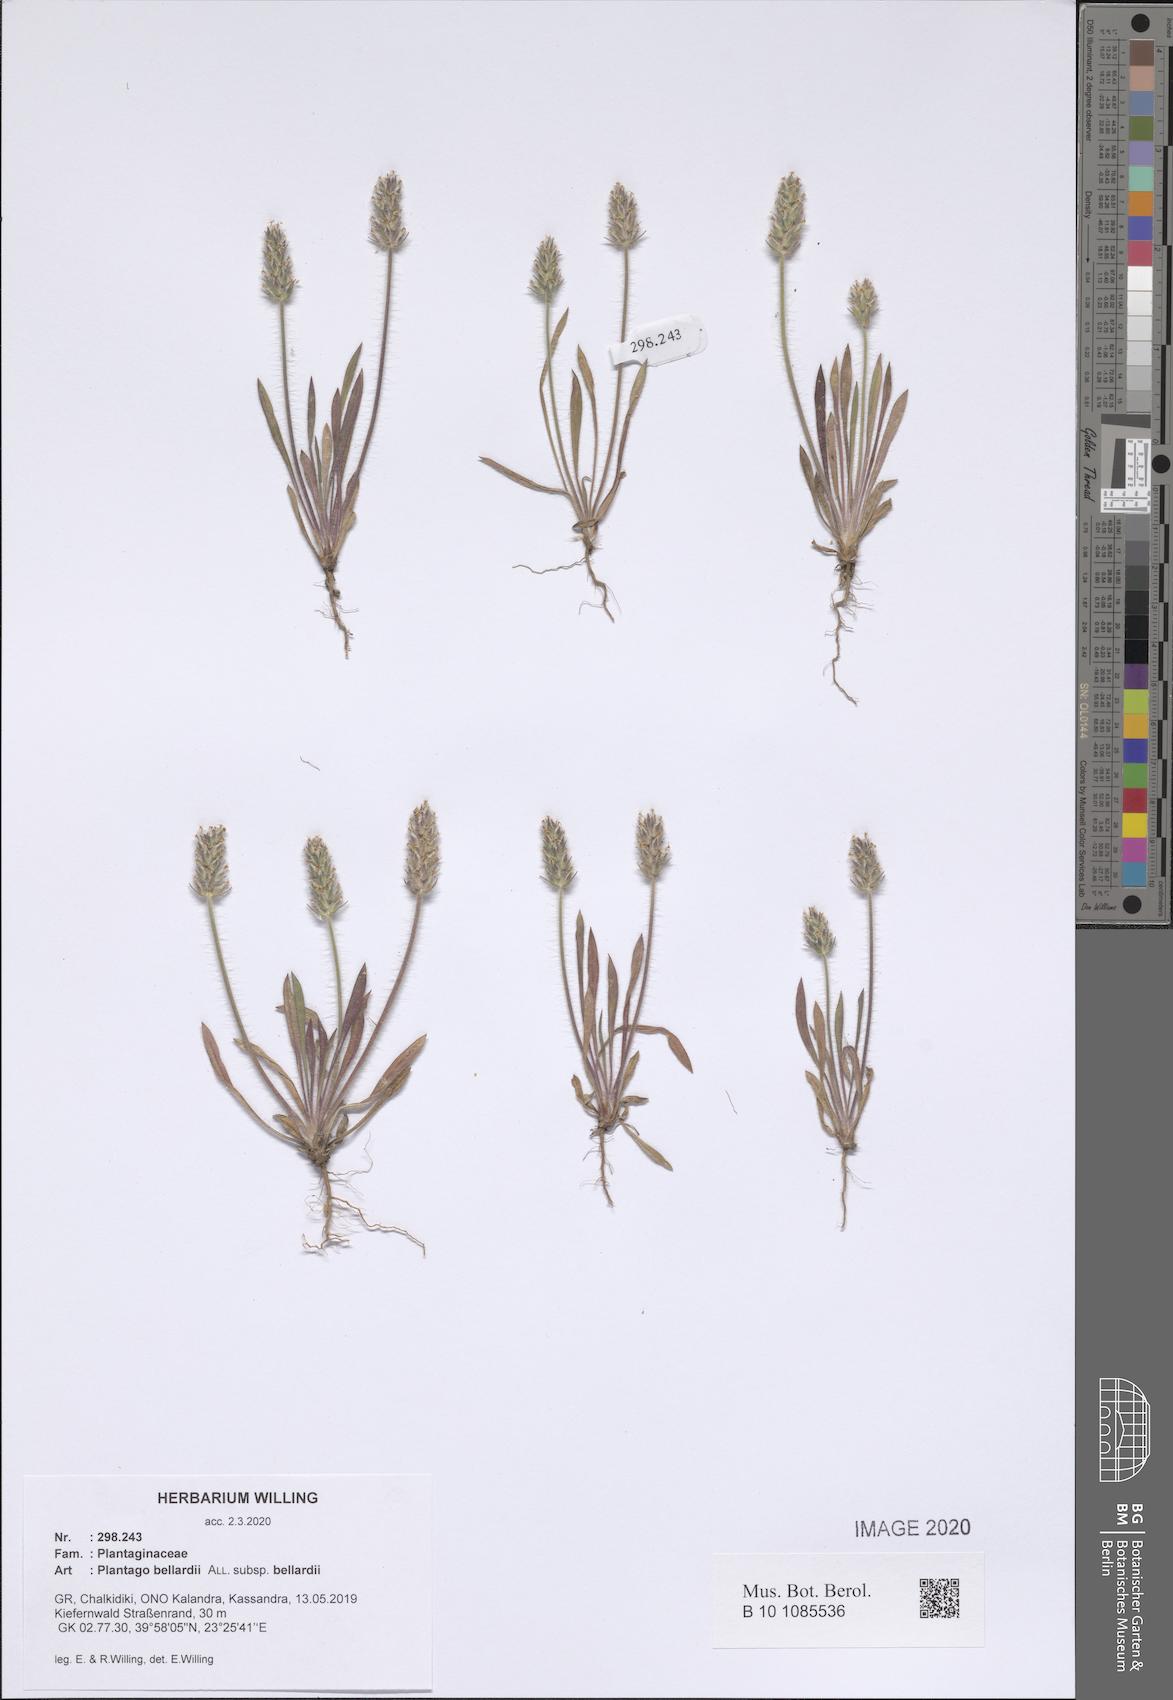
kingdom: Plantae
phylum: Tracheophyta
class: Magnoliopsida
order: Lamiales
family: Plantaginaceae
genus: Plantago
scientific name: Plantago bellardii
